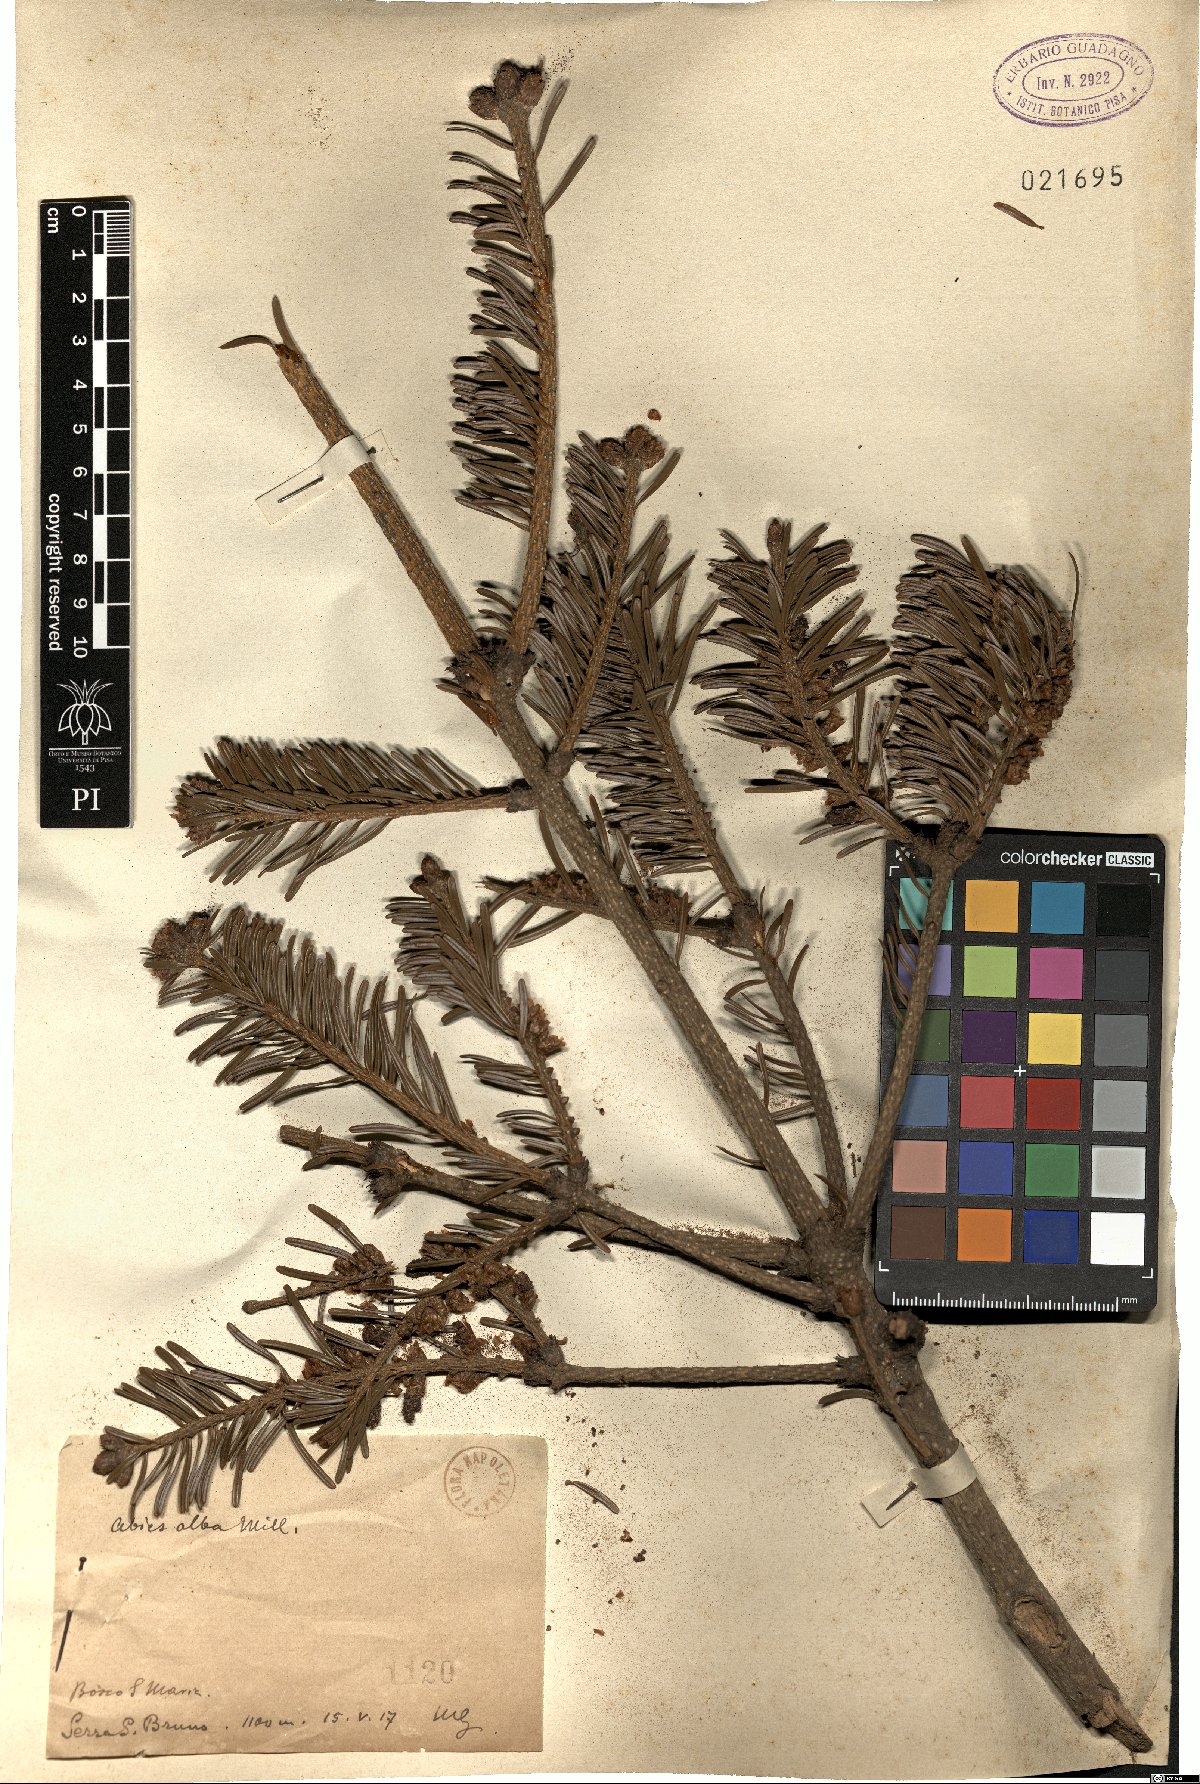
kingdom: Plantae
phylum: Tracheophyta
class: Pinopsida
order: Pinales
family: Pinaceae
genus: Abies
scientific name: Abies alba
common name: Silver fir
